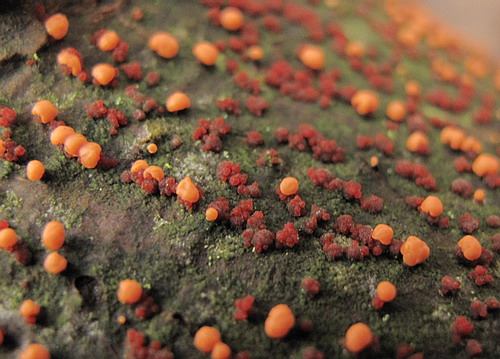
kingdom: Fungi
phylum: Ascomycota
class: Sordariomycetes
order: Hypocreales
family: Nectriaceae
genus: Nectria
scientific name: Nectria cinnabarina
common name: almindelig cinnobersvamp
